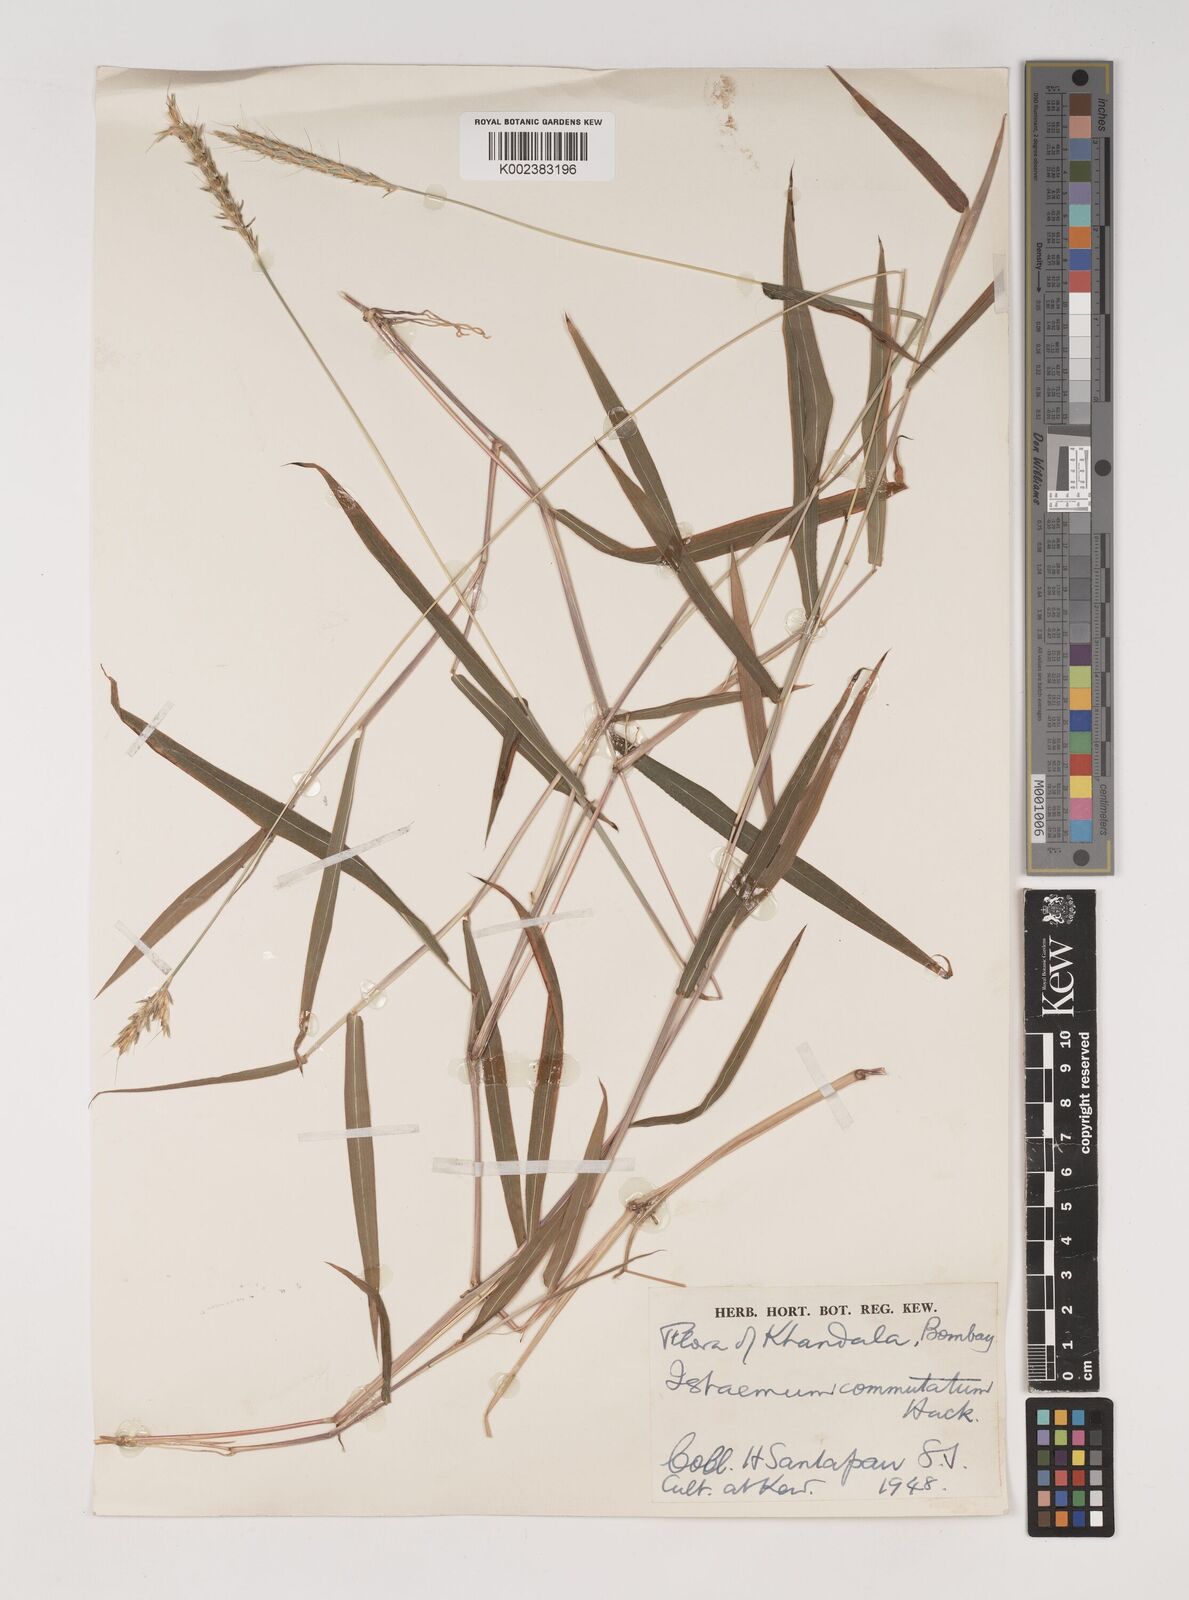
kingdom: Plantae
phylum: Tracheophyta
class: Liliopsida
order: Poales
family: Poaceae
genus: Ischaemum
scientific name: Ischaemum commutatum
